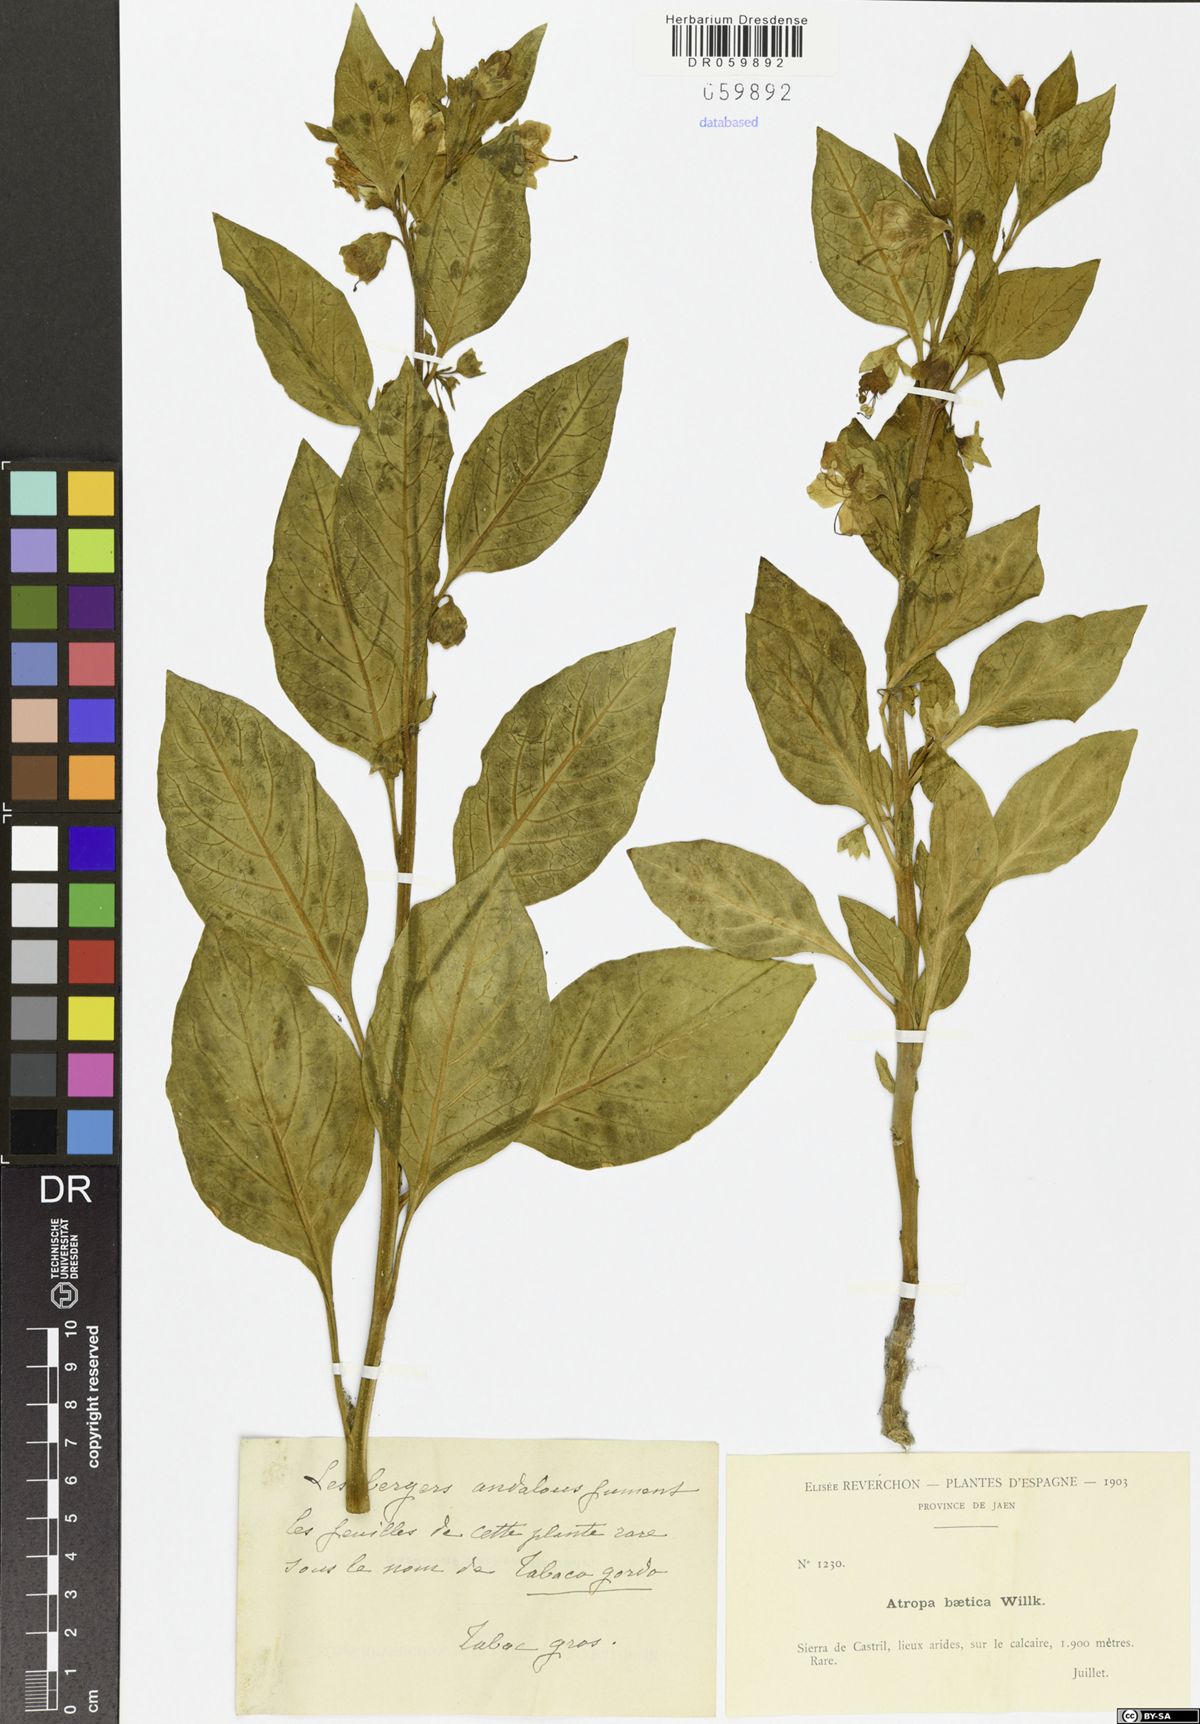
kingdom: Plantae
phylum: Tracheophyta
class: Magnoliopsida
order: Solanales
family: Solanaceae
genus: Atropa
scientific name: Atropa baetica
